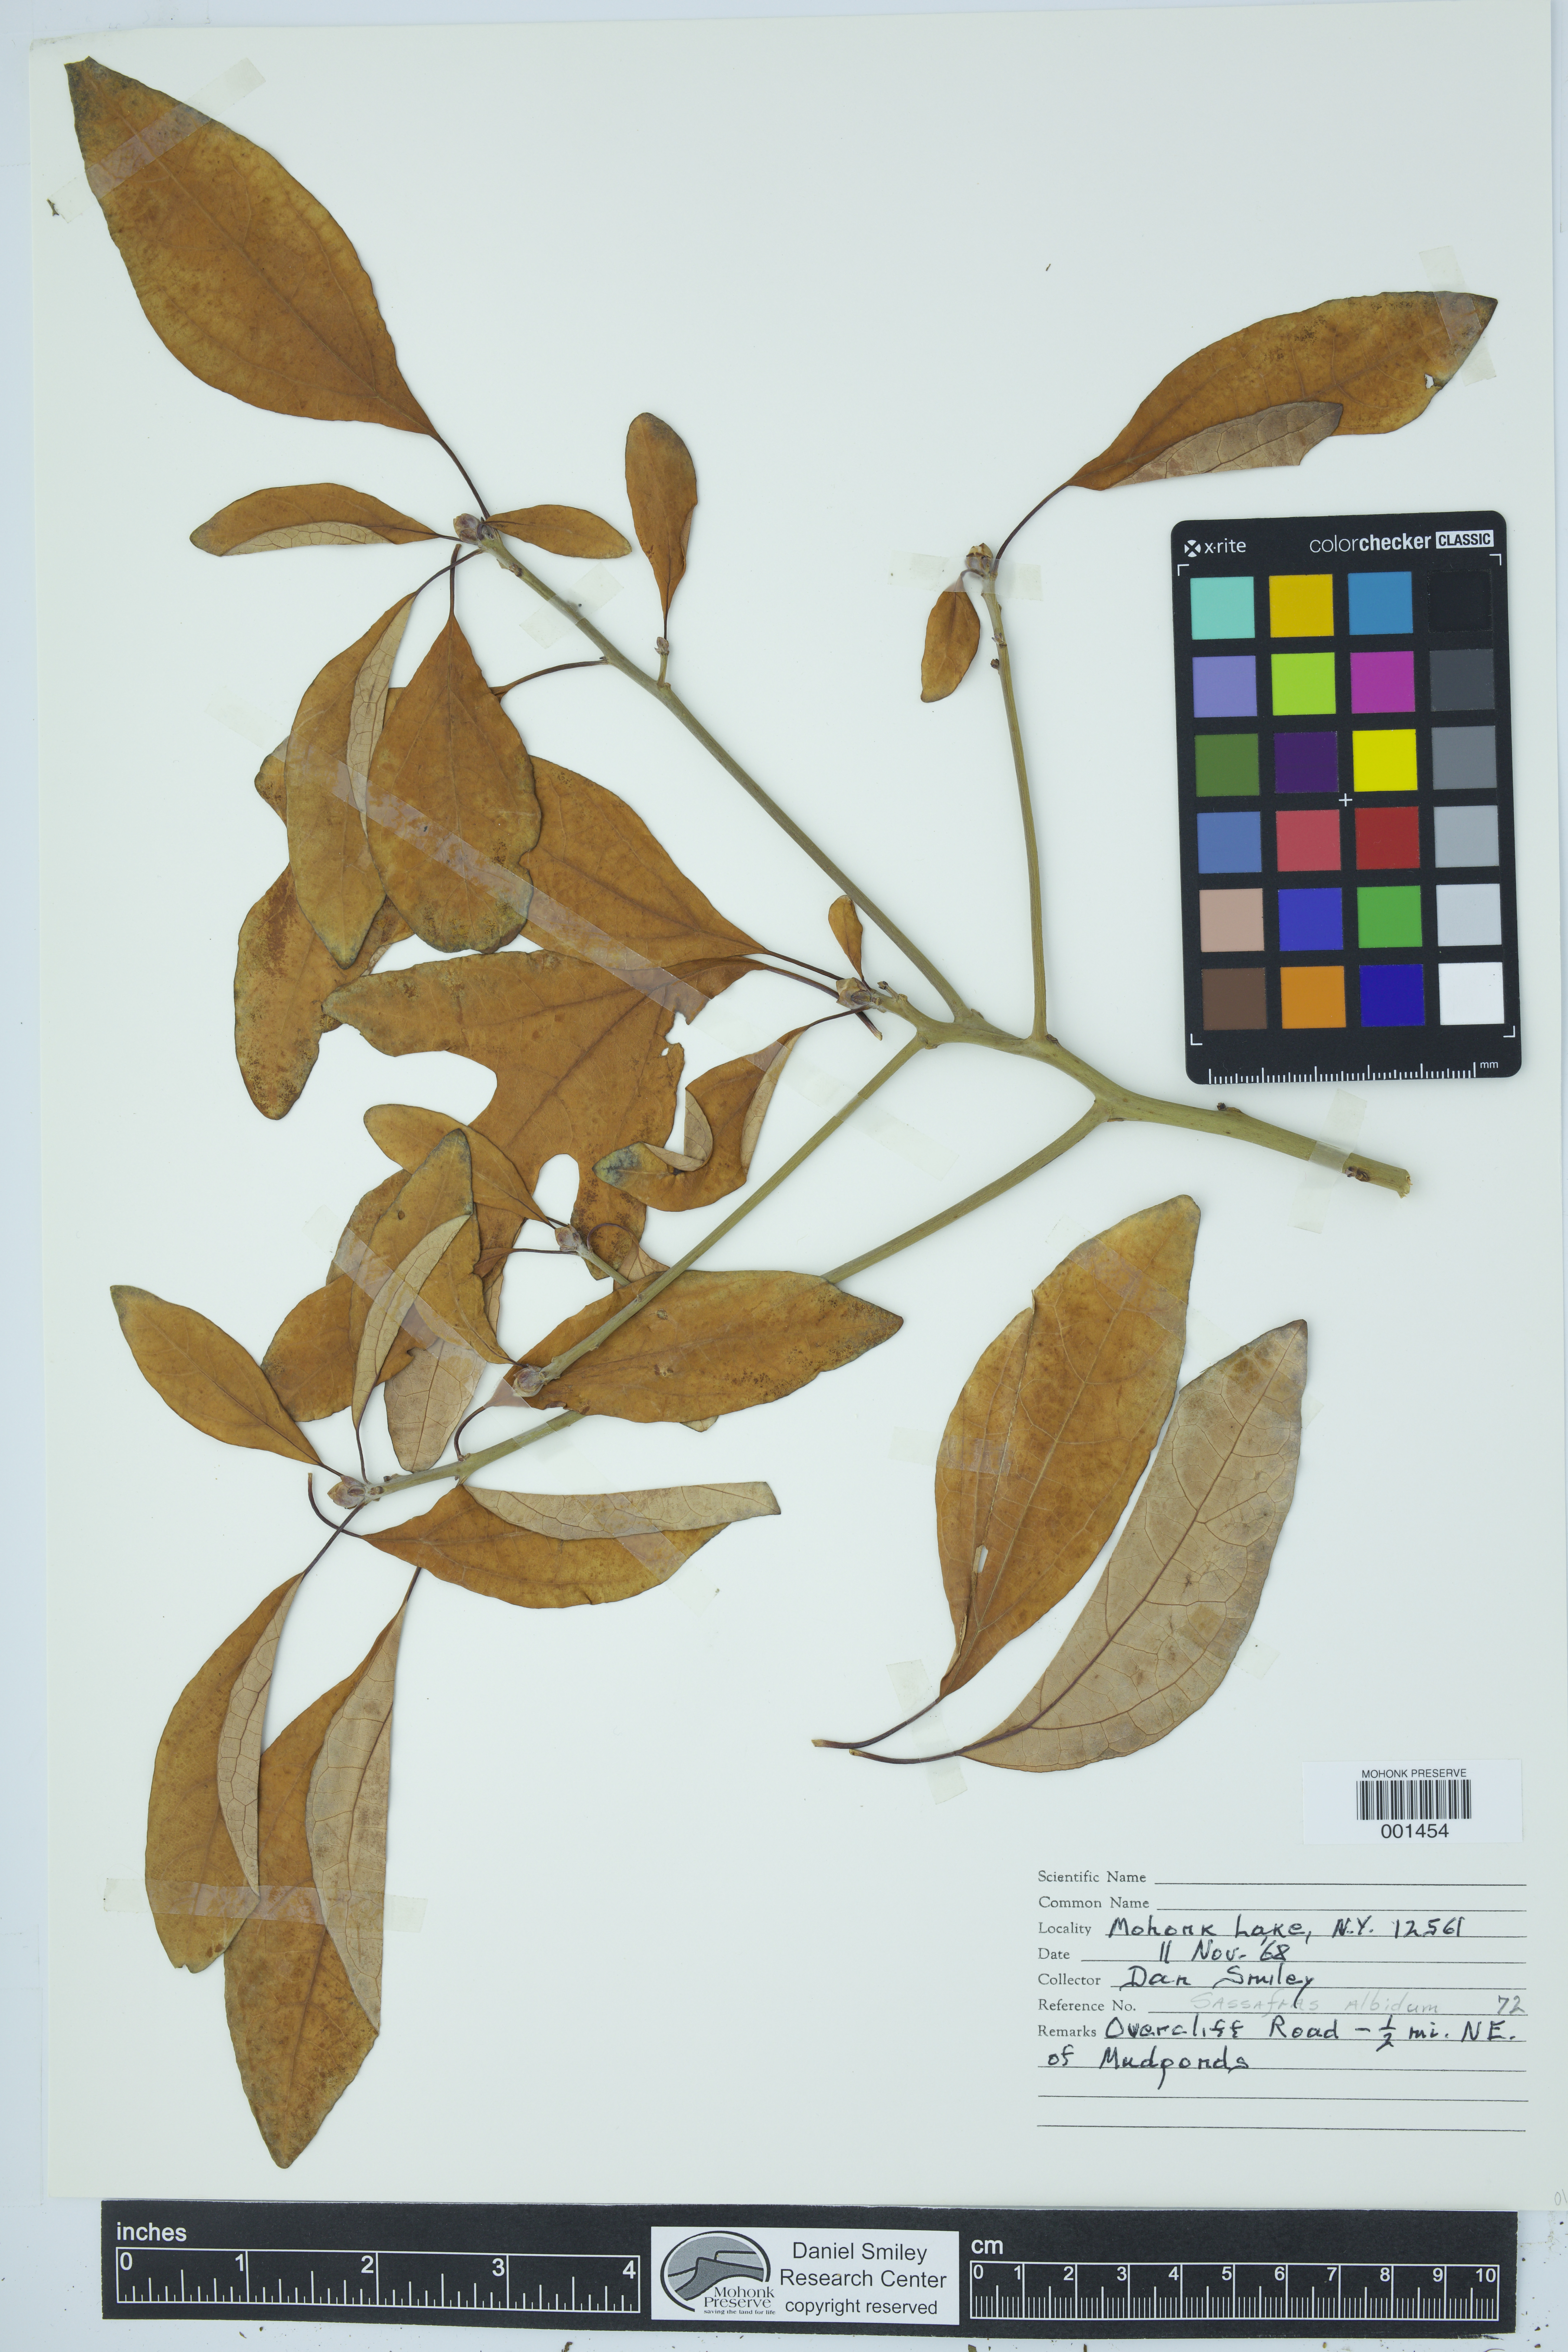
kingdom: Plantae
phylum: Tracheophyta
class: Magnoliopsida
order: Laurales
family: Lauraceae
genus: Sassafras
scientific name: Sassafras albidum
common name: Sassafras
